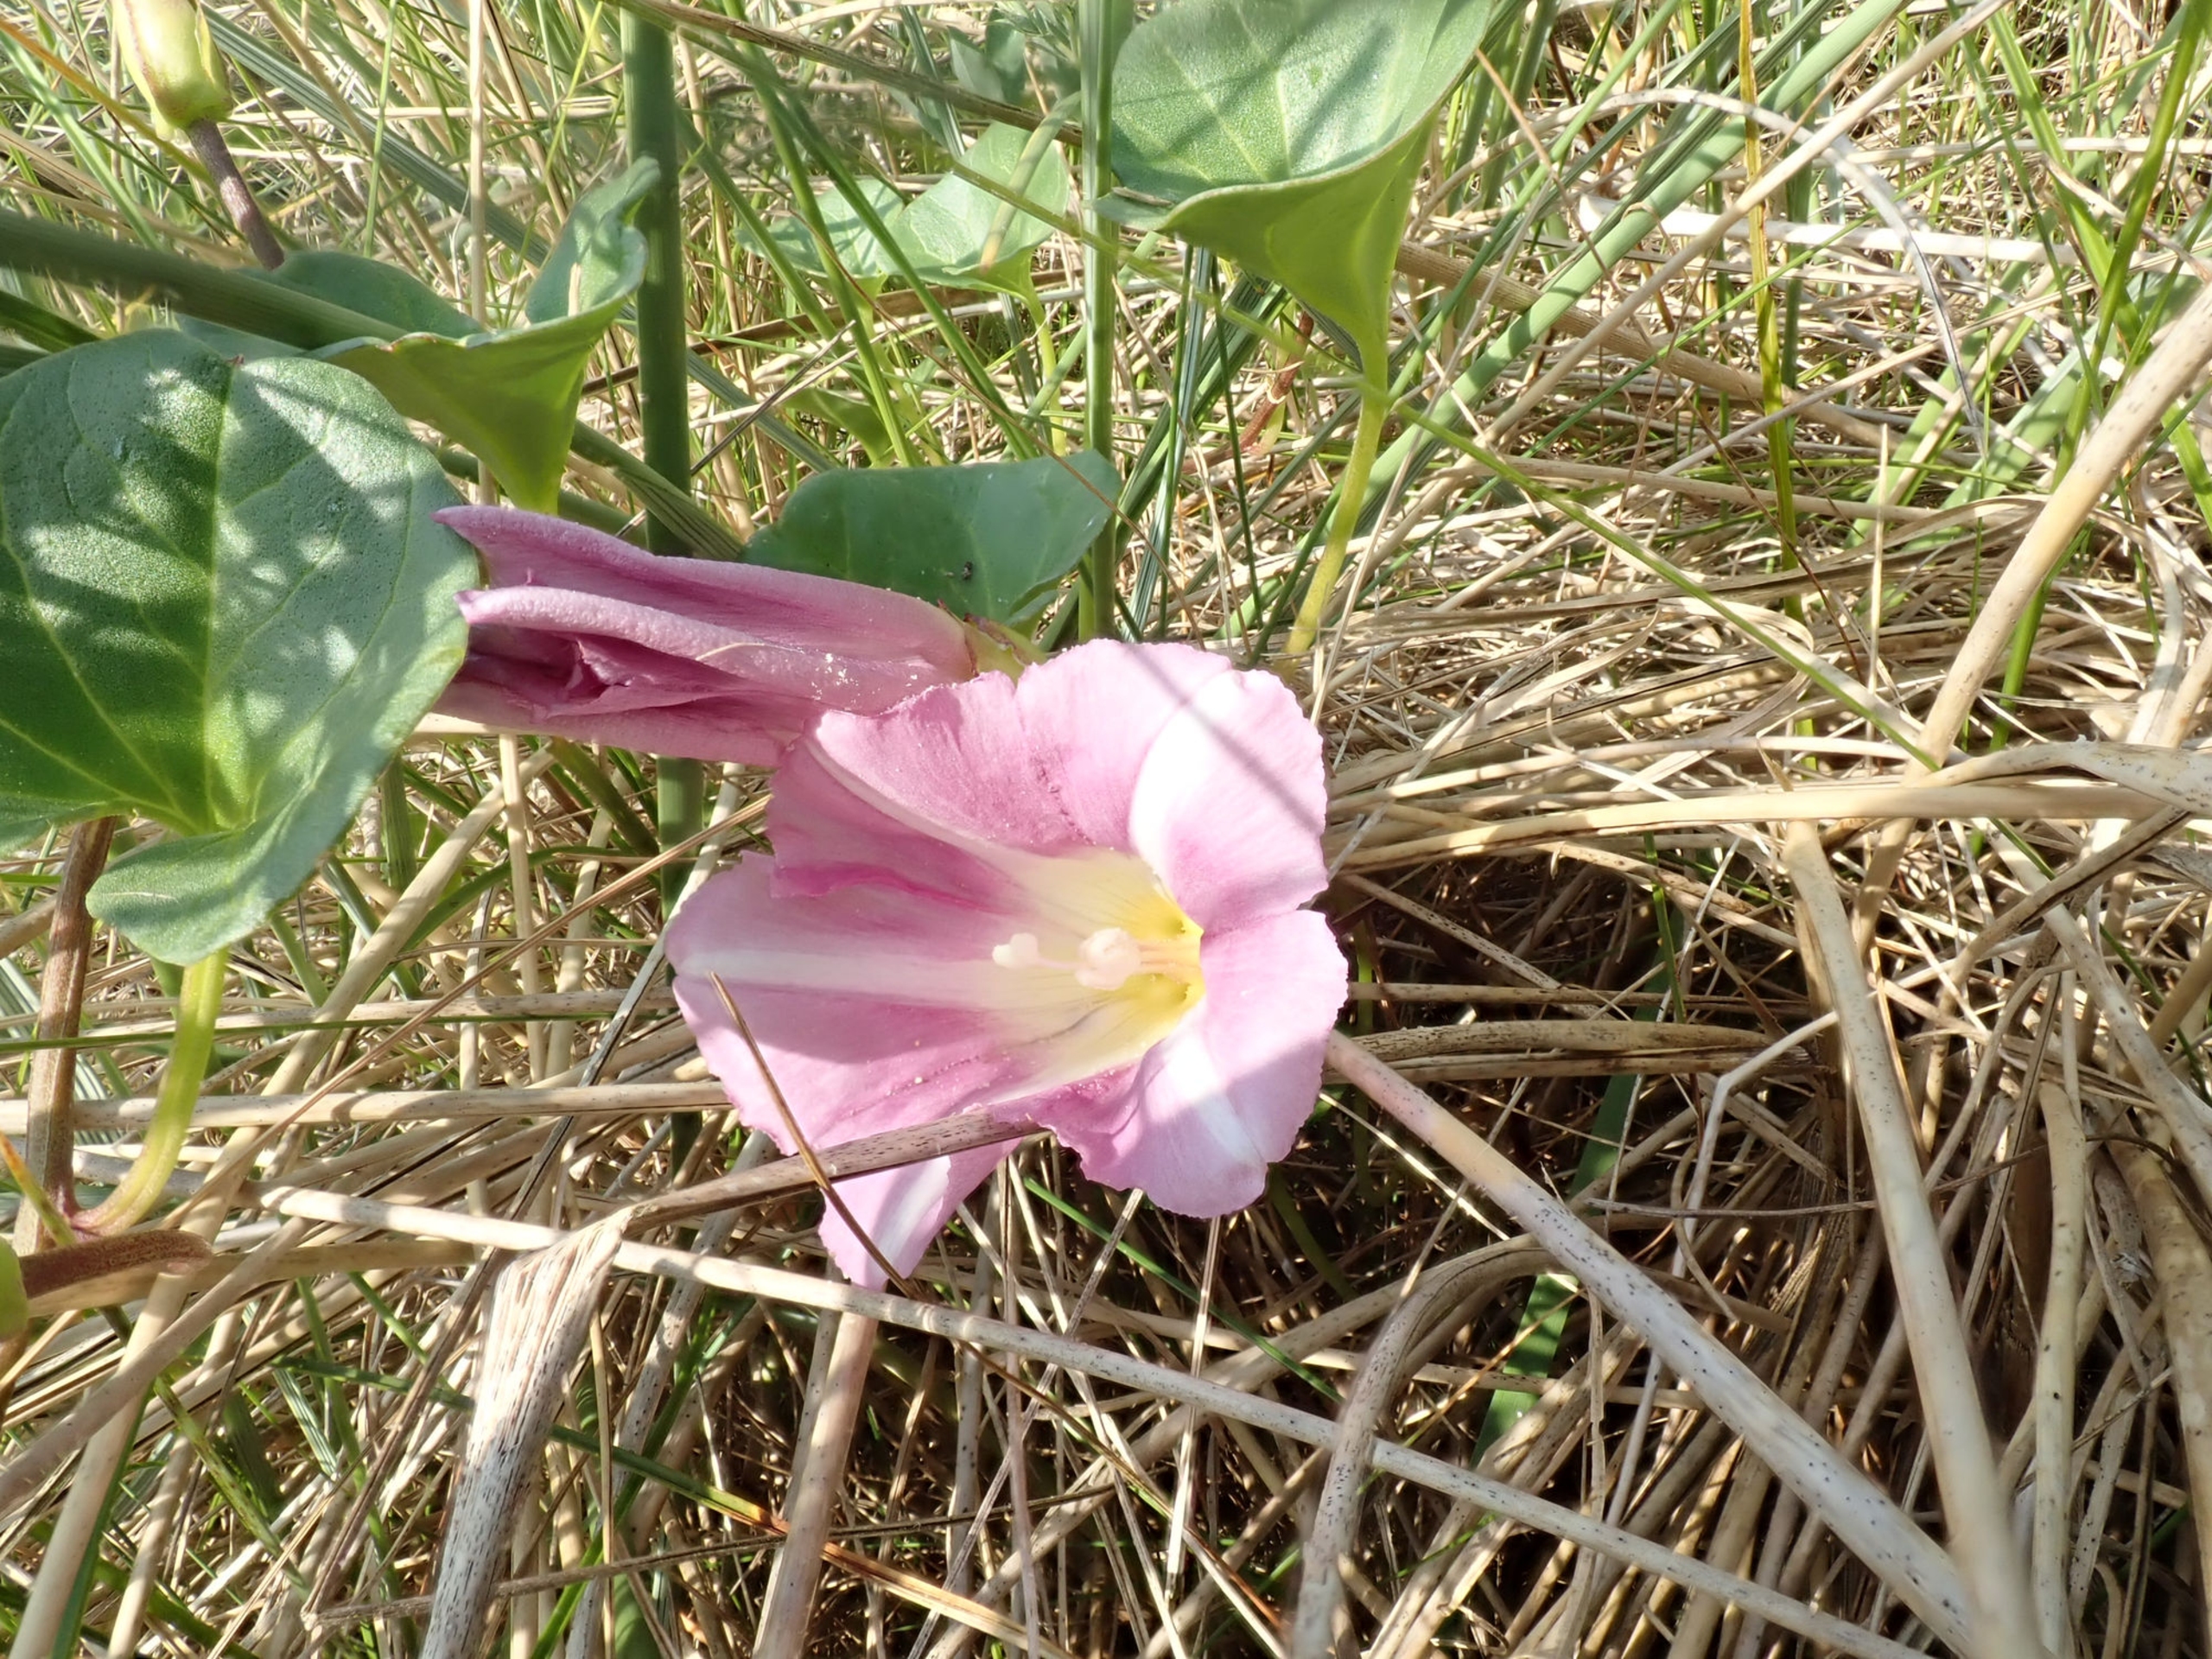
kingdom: Plantae
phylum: Tracheophyta
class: Magnoliopsida
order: Solanales
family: Convolvulaceae
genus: Calystegia
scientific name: Calystegia soldanella
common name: Strand-snerle
